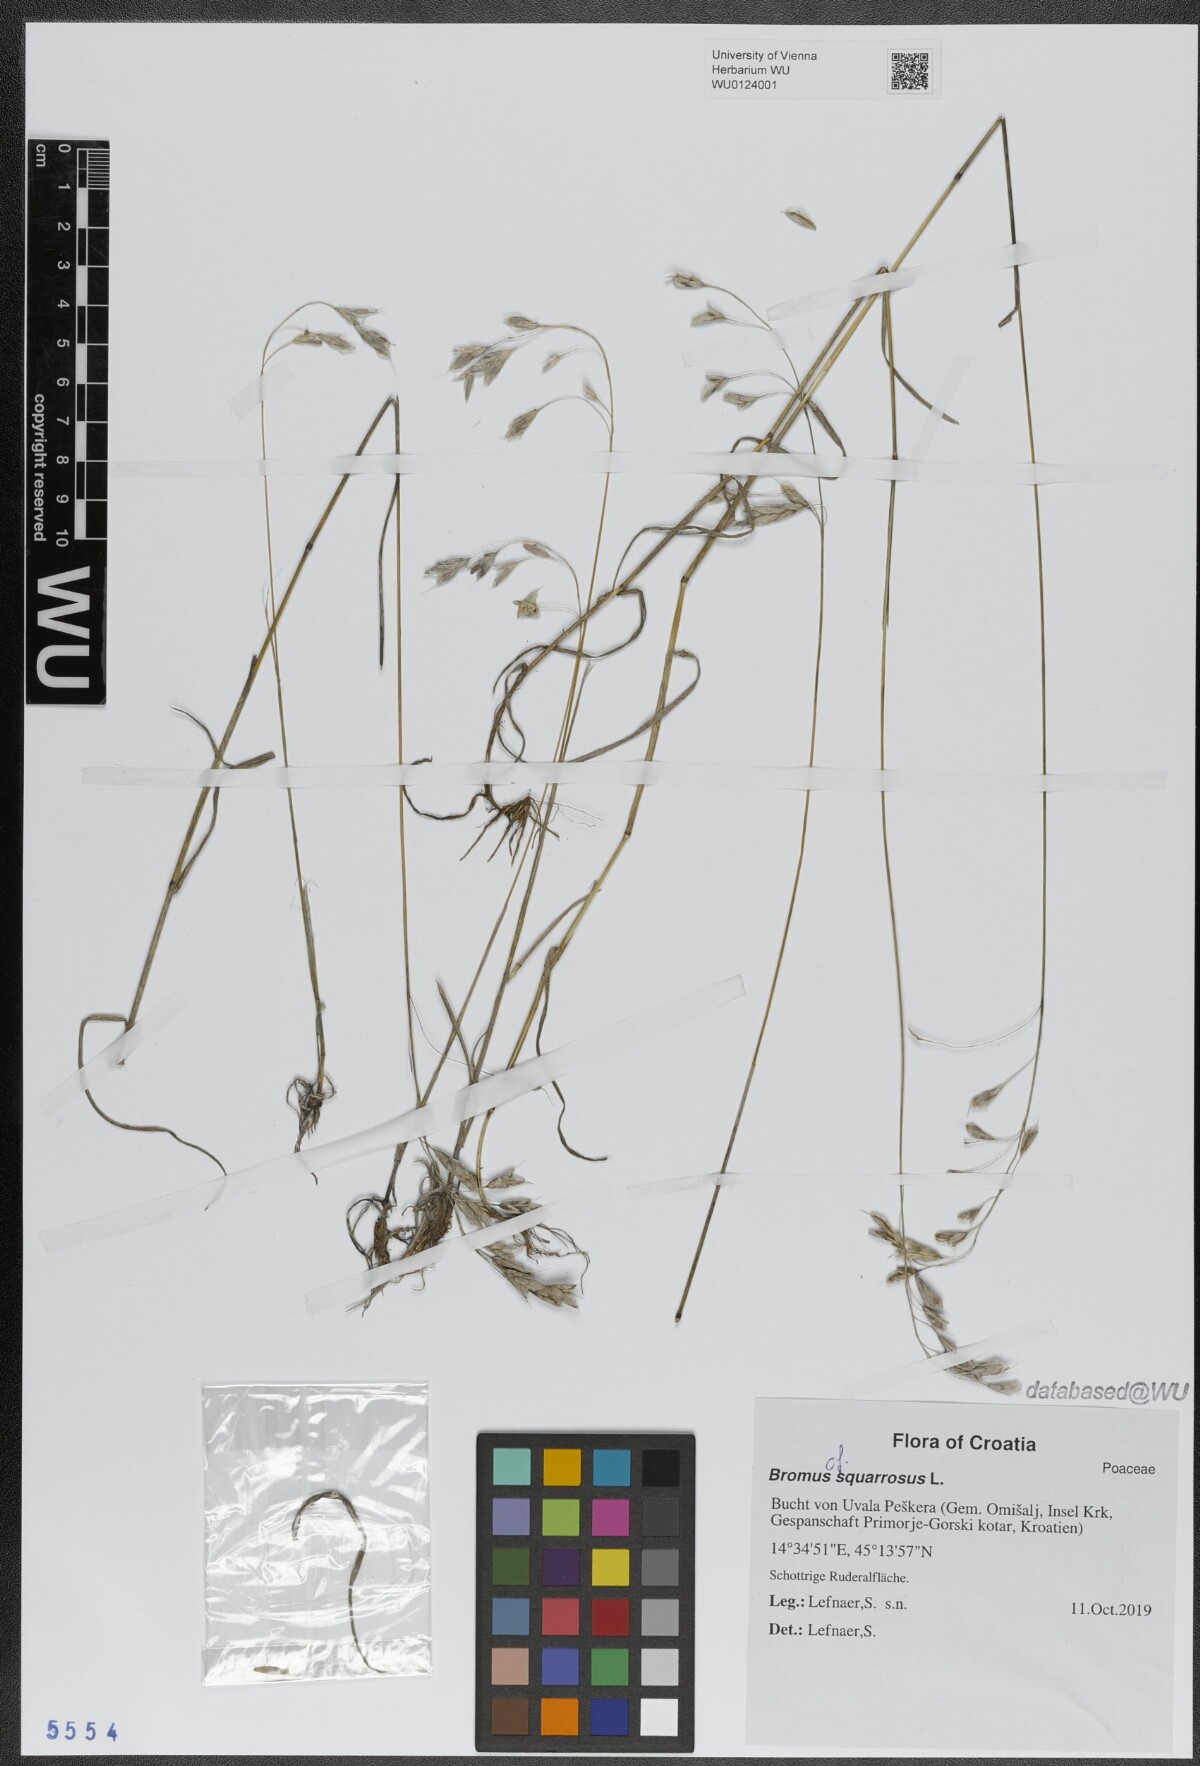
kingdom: Plantae
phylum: Tracheophyta
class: Liliopsida
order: Poales
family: Poaceae
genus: Bromus
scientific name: Bromus squarrosus
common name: Corn brome
